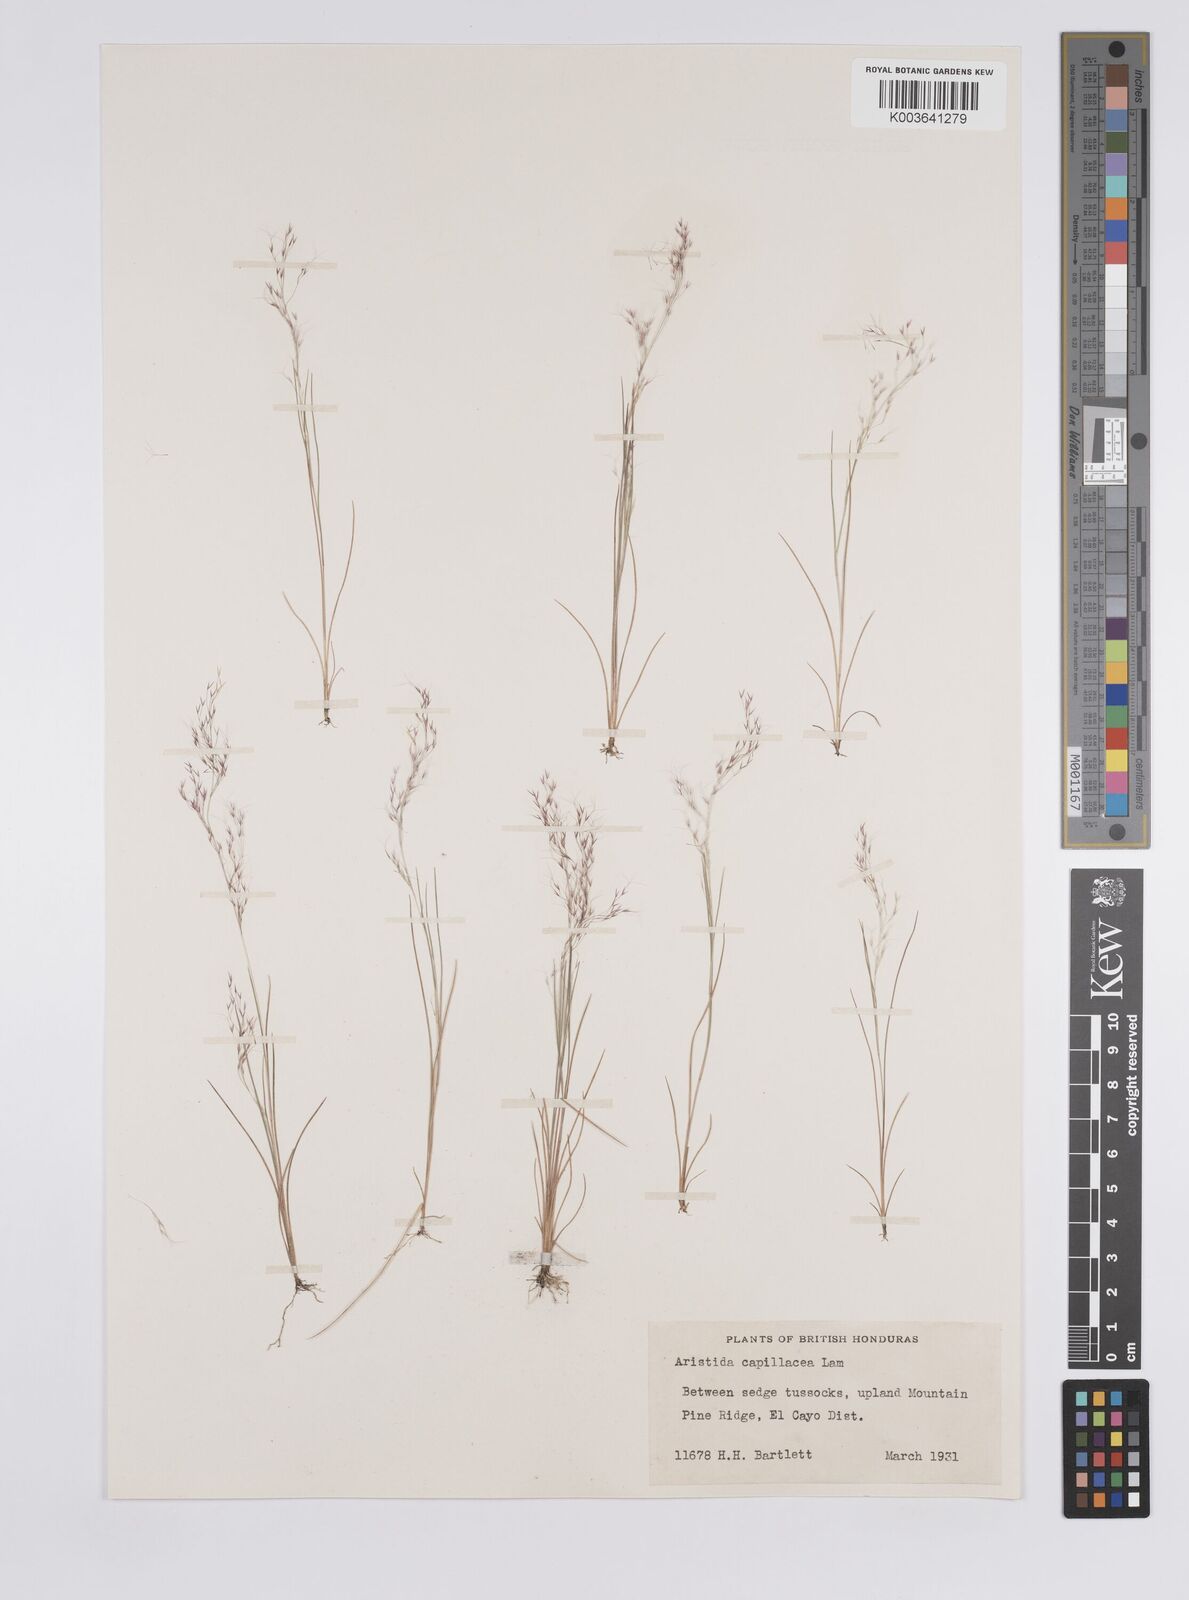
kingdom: Plantae
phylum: Tracheophyta
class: Liliopsida
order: Poales
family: Poaceae
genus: Aristida
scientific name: Aristida capillacea
